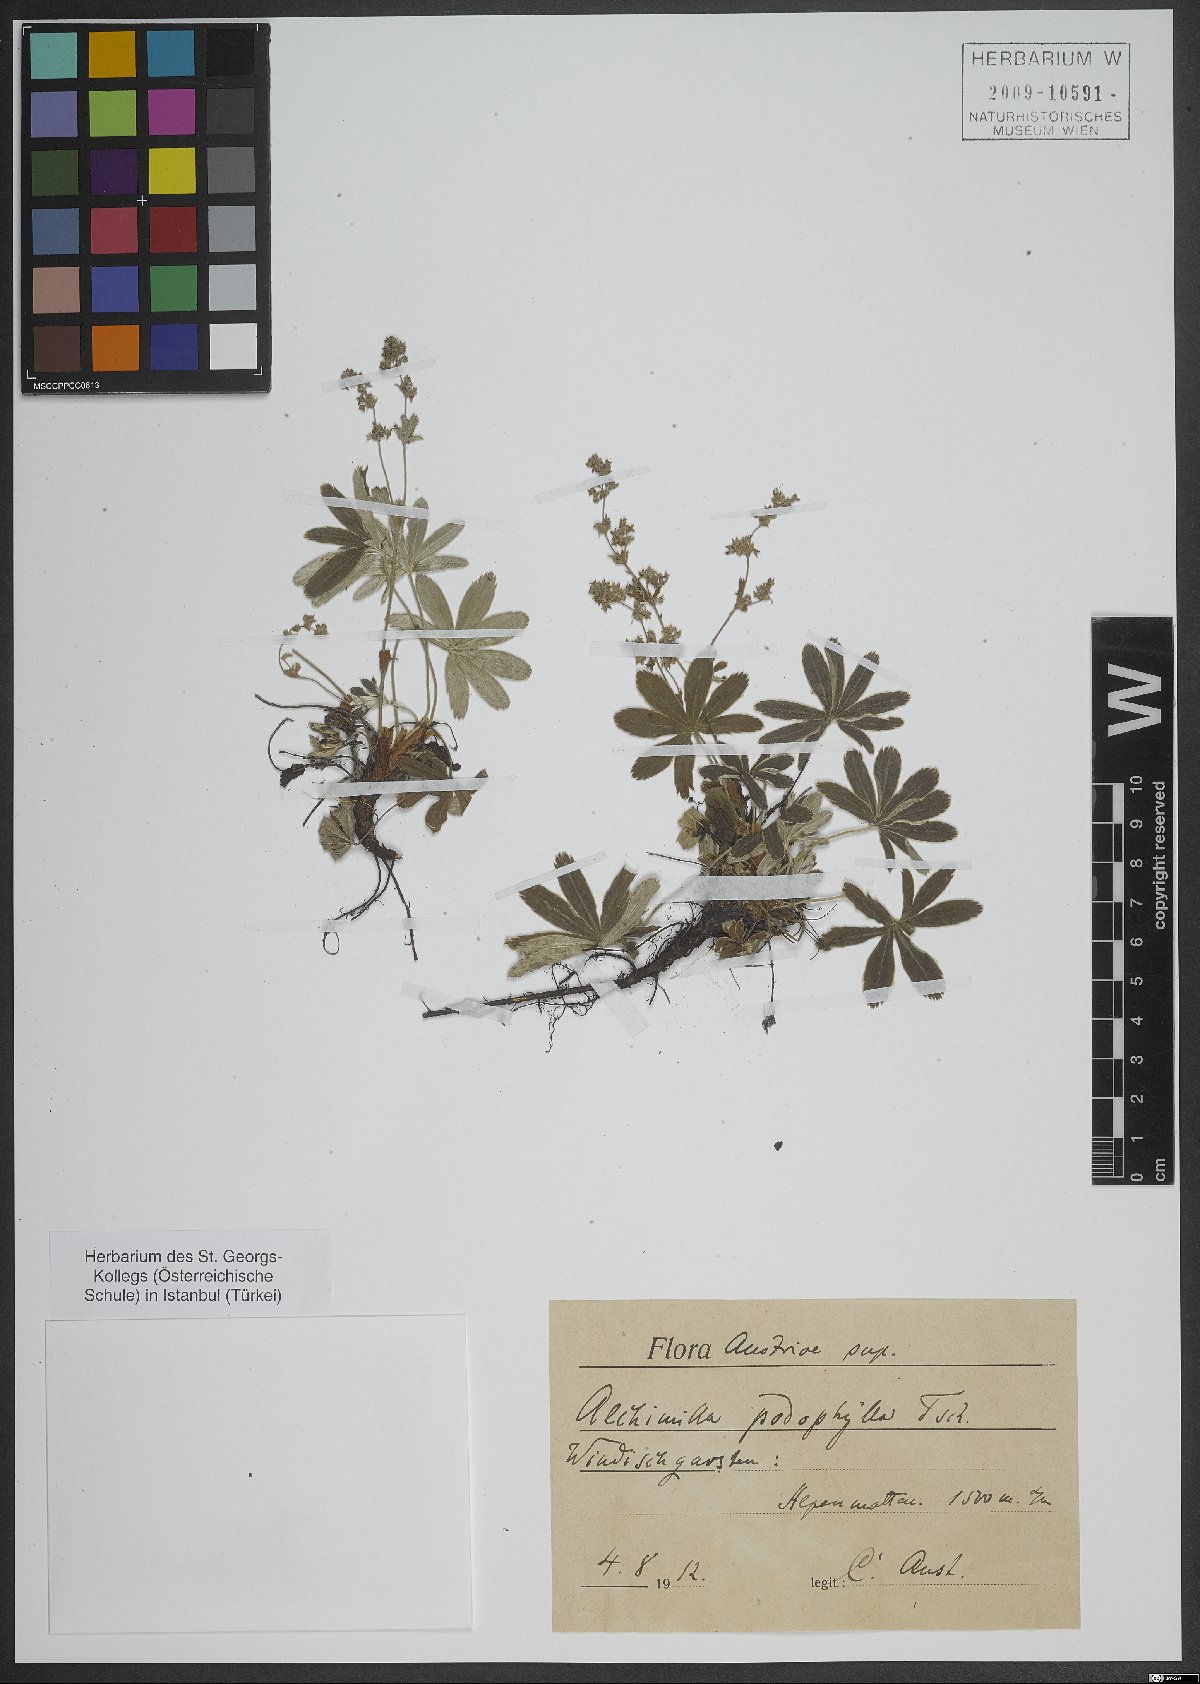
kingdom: Plantae
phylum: Tracheophyta
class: Magnoliopsida
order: Caryophyllales
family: Caryophyllaceae
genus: Silene
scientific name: Silene dioica
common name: Red campion
